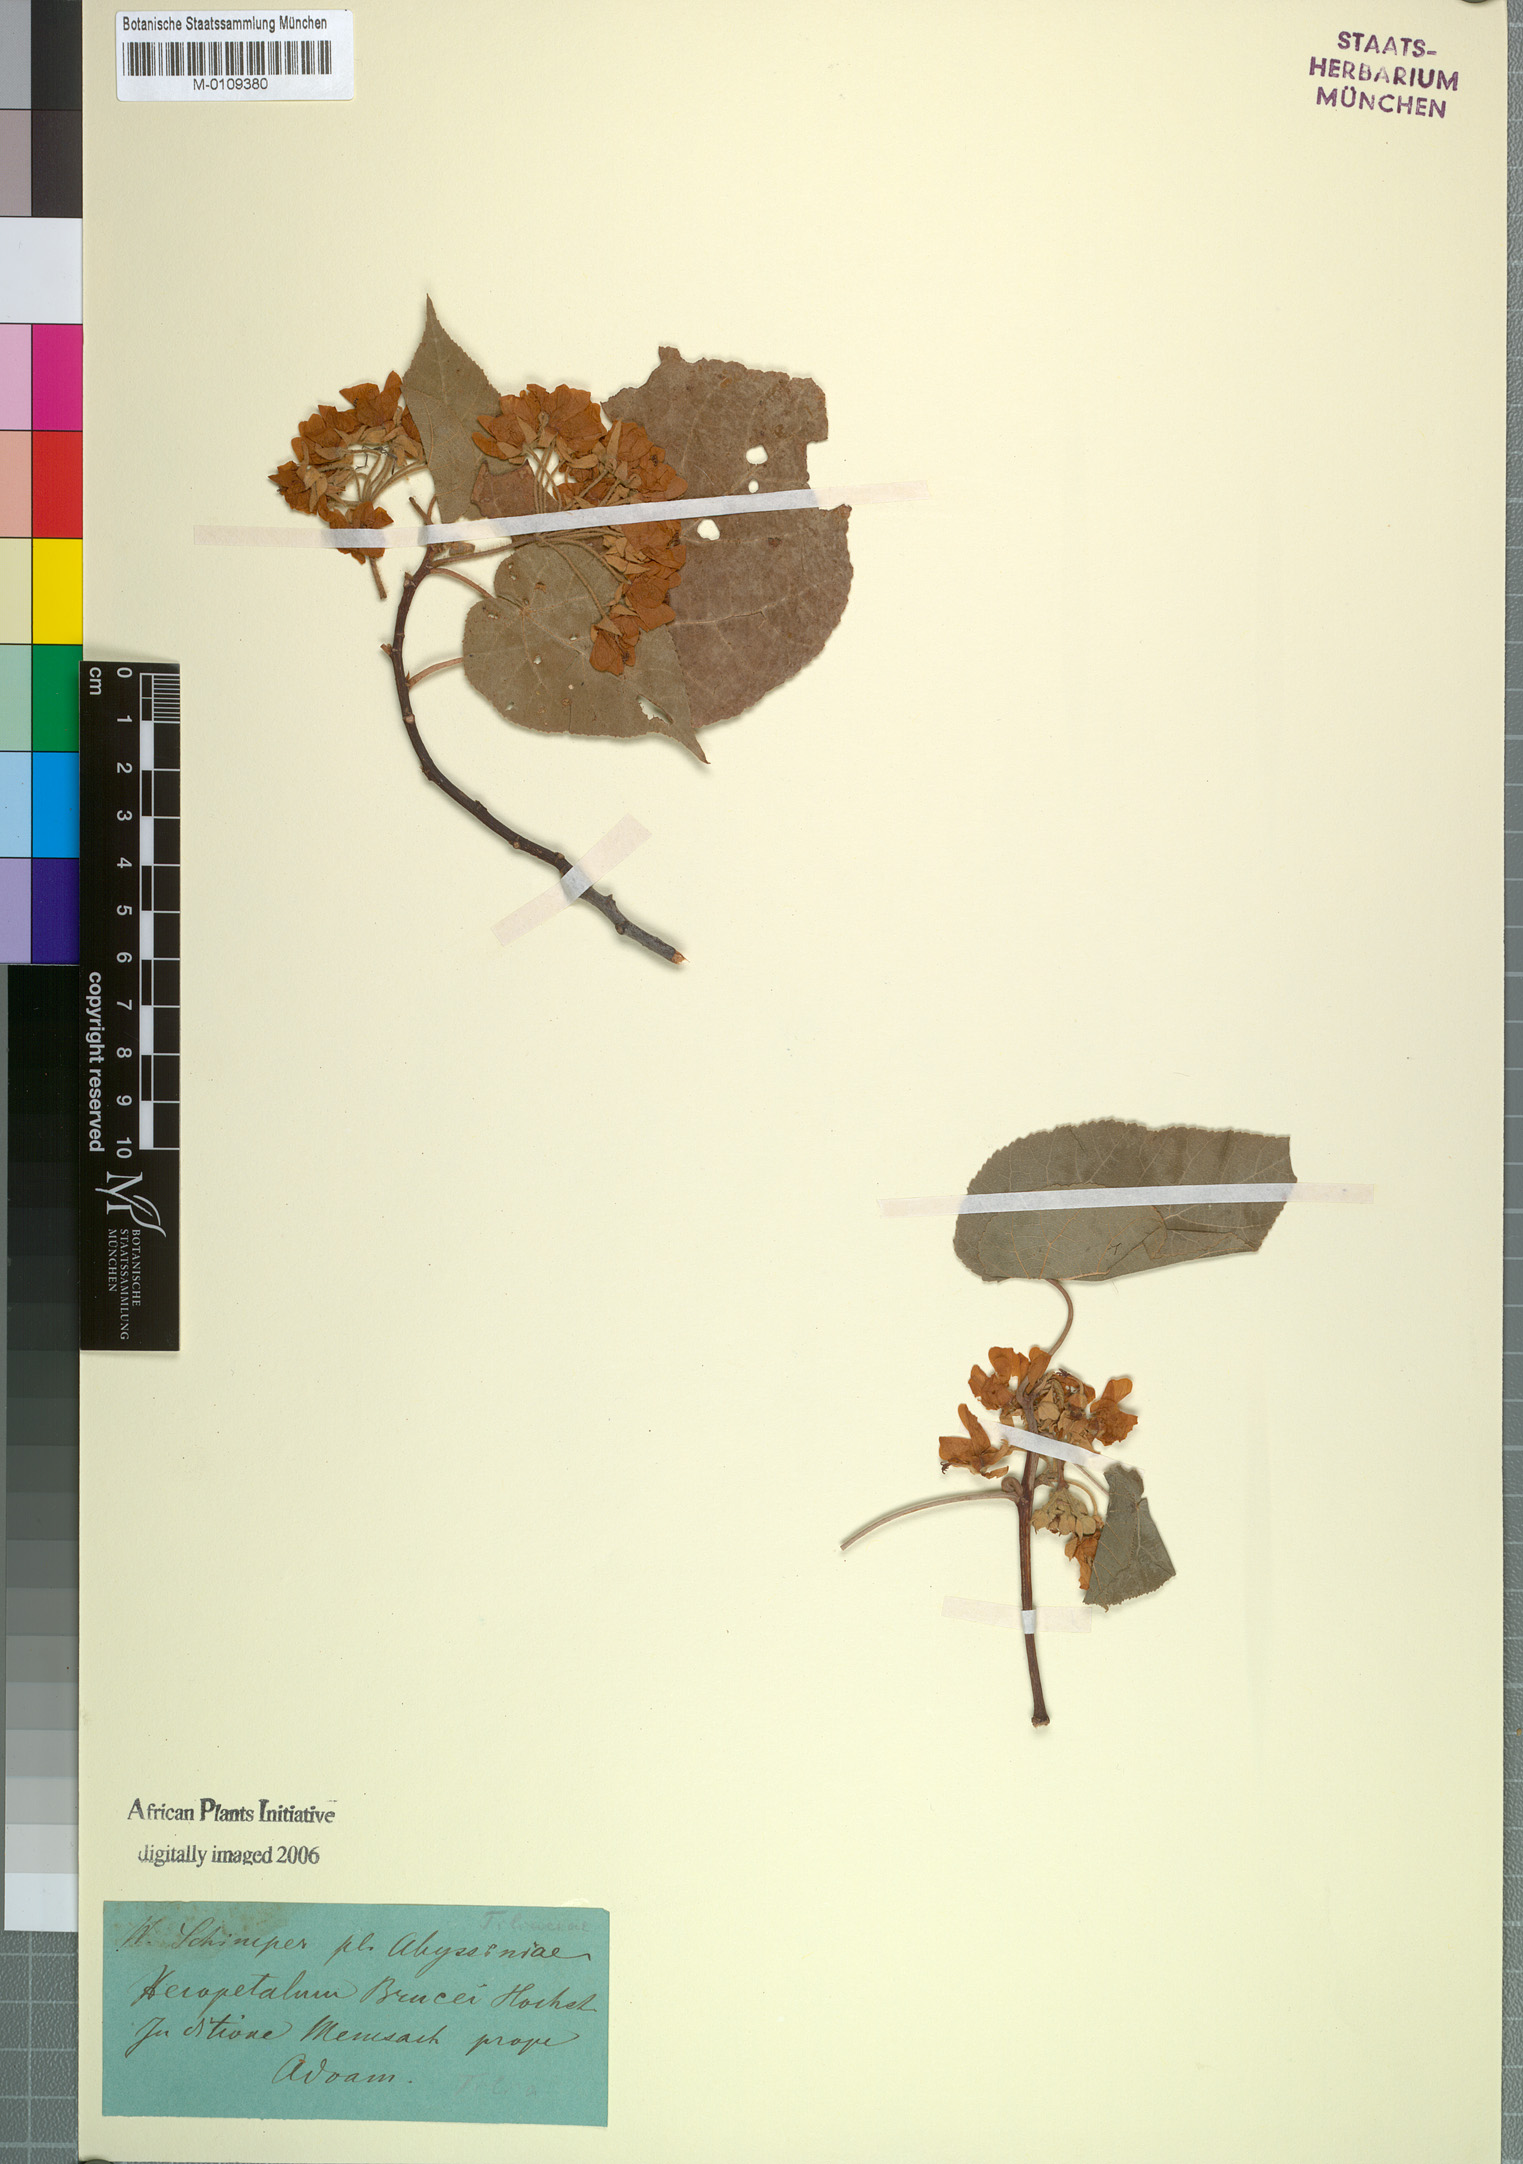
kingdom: Plantae
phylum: Tracheophyta
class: Magnoliopsida
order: Malvales
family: Malvaceae
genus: Dombeya
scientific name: Dombeya torrida
